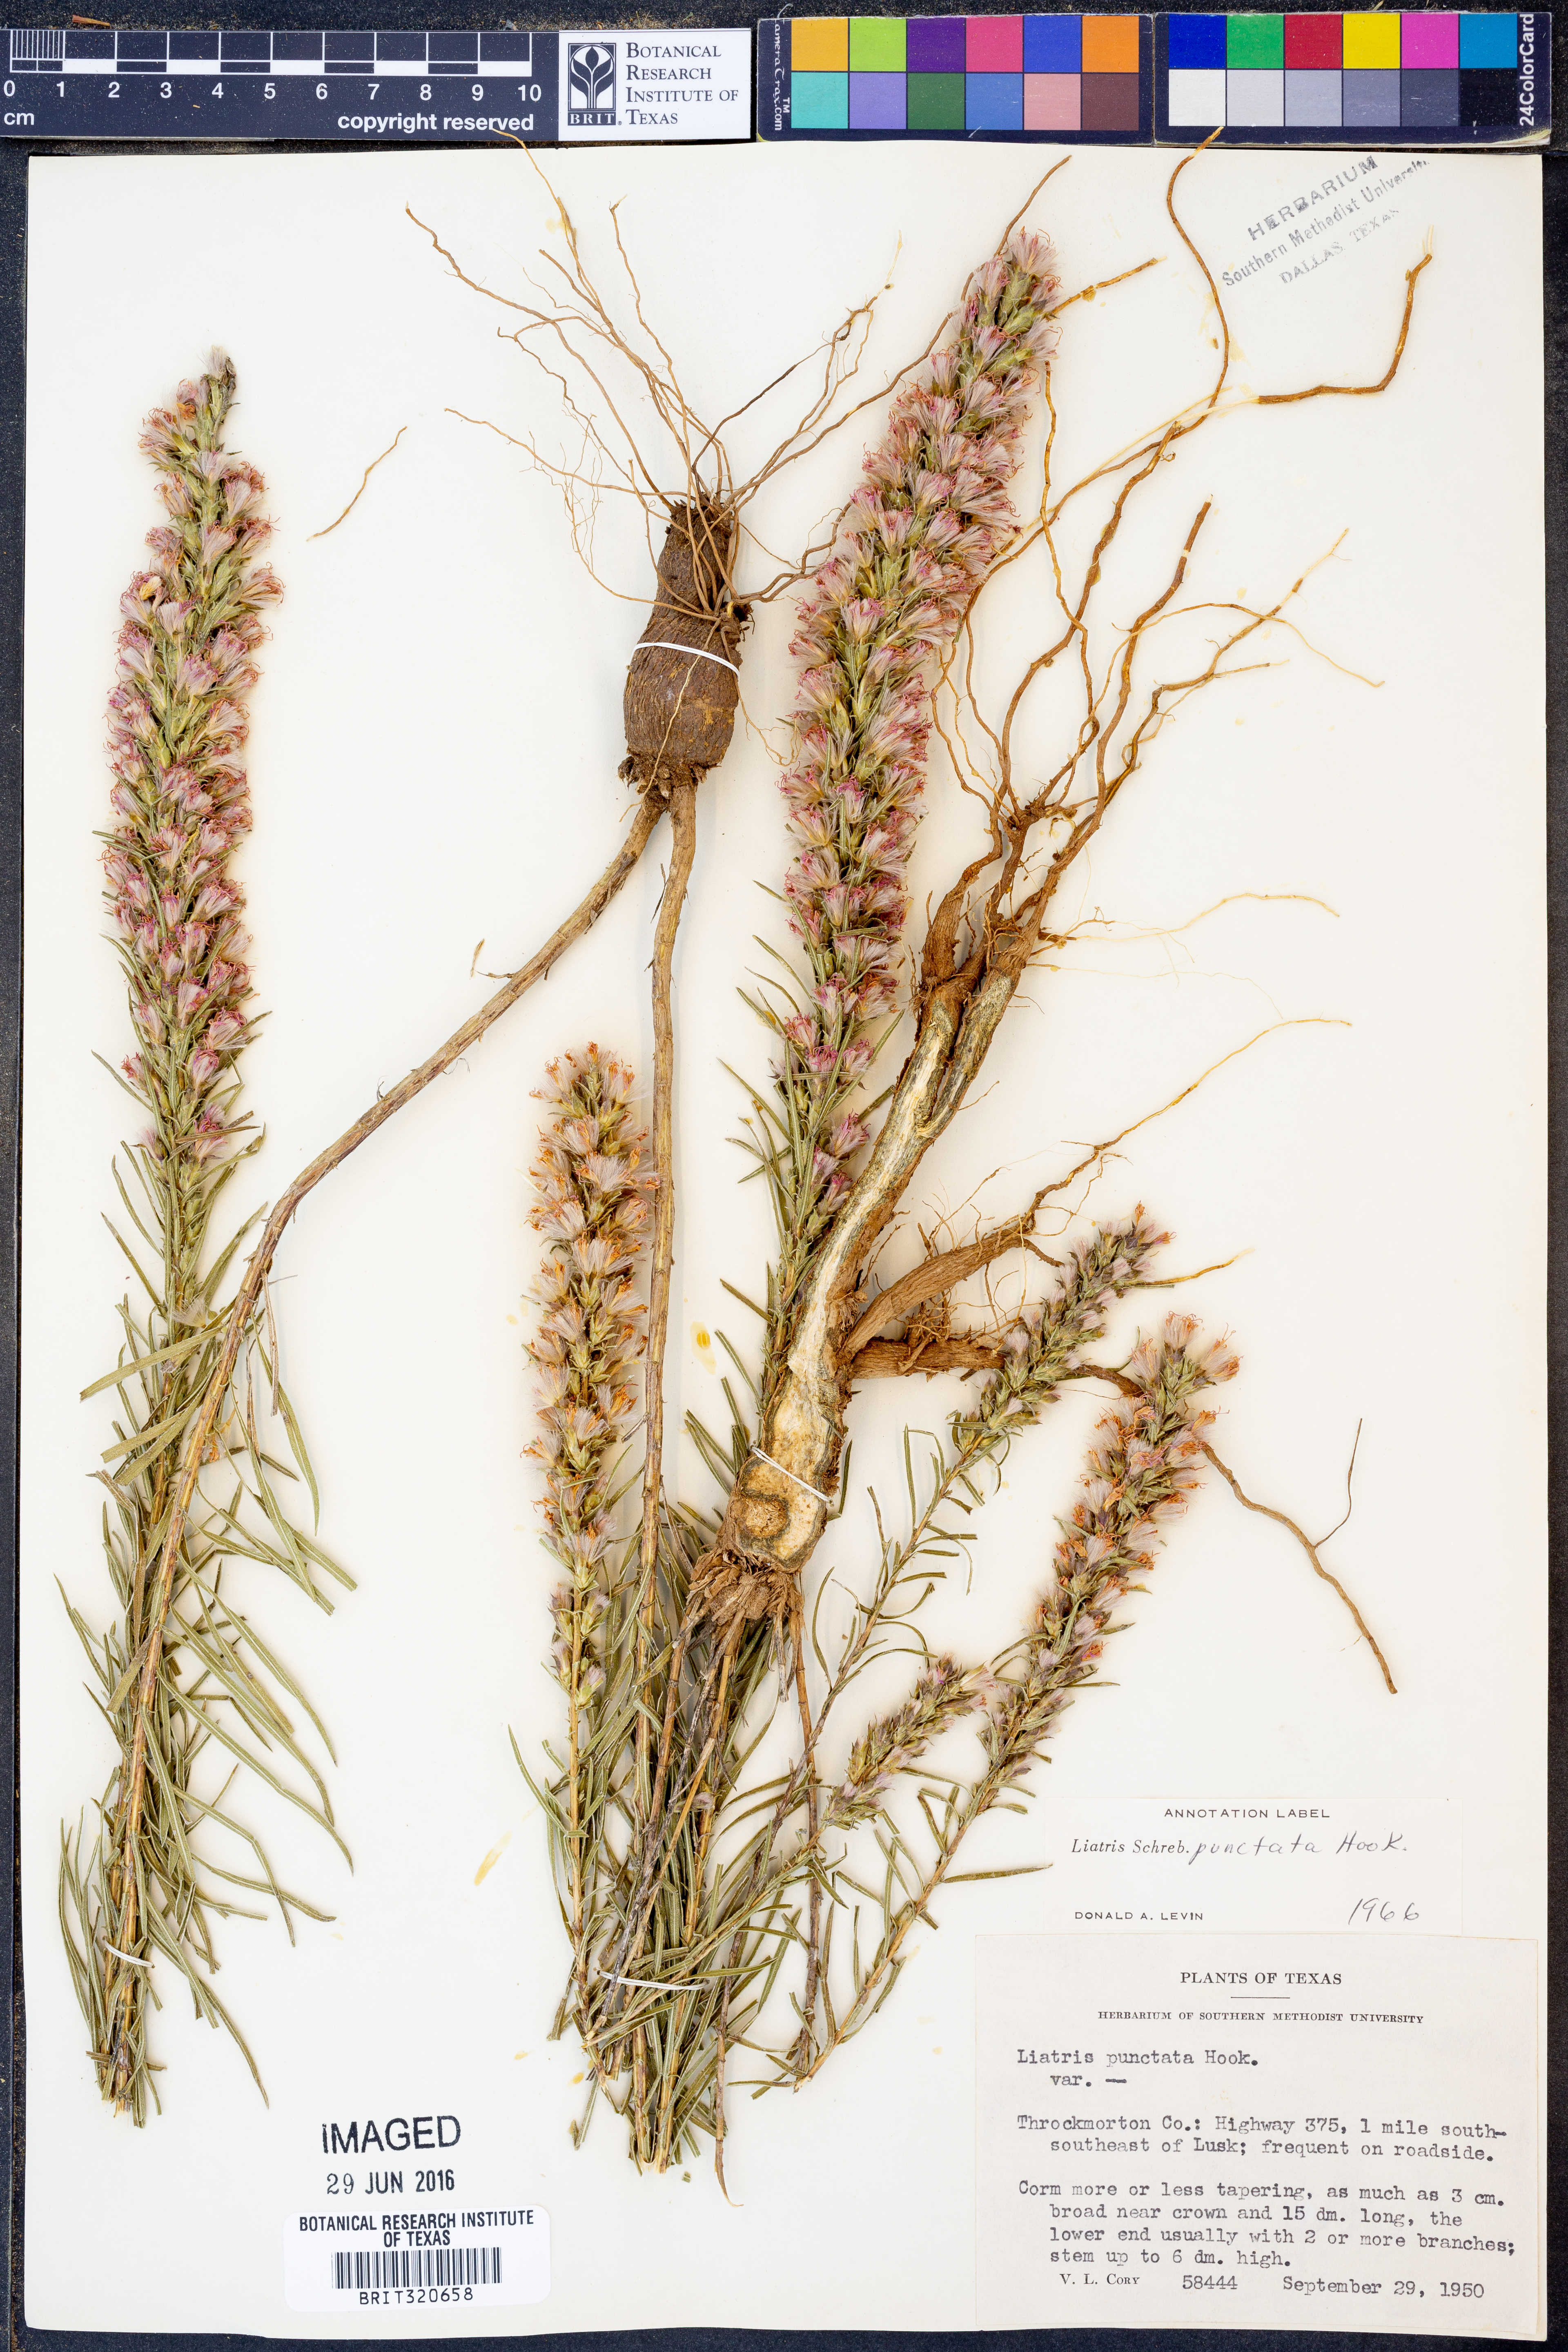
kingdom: Plantae
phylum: Tracheophyta
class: Magnoliopsida
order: Asterales
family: Asteraceae
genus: Liatris
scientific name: Liatris punctata
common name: Dotted gayfeather
